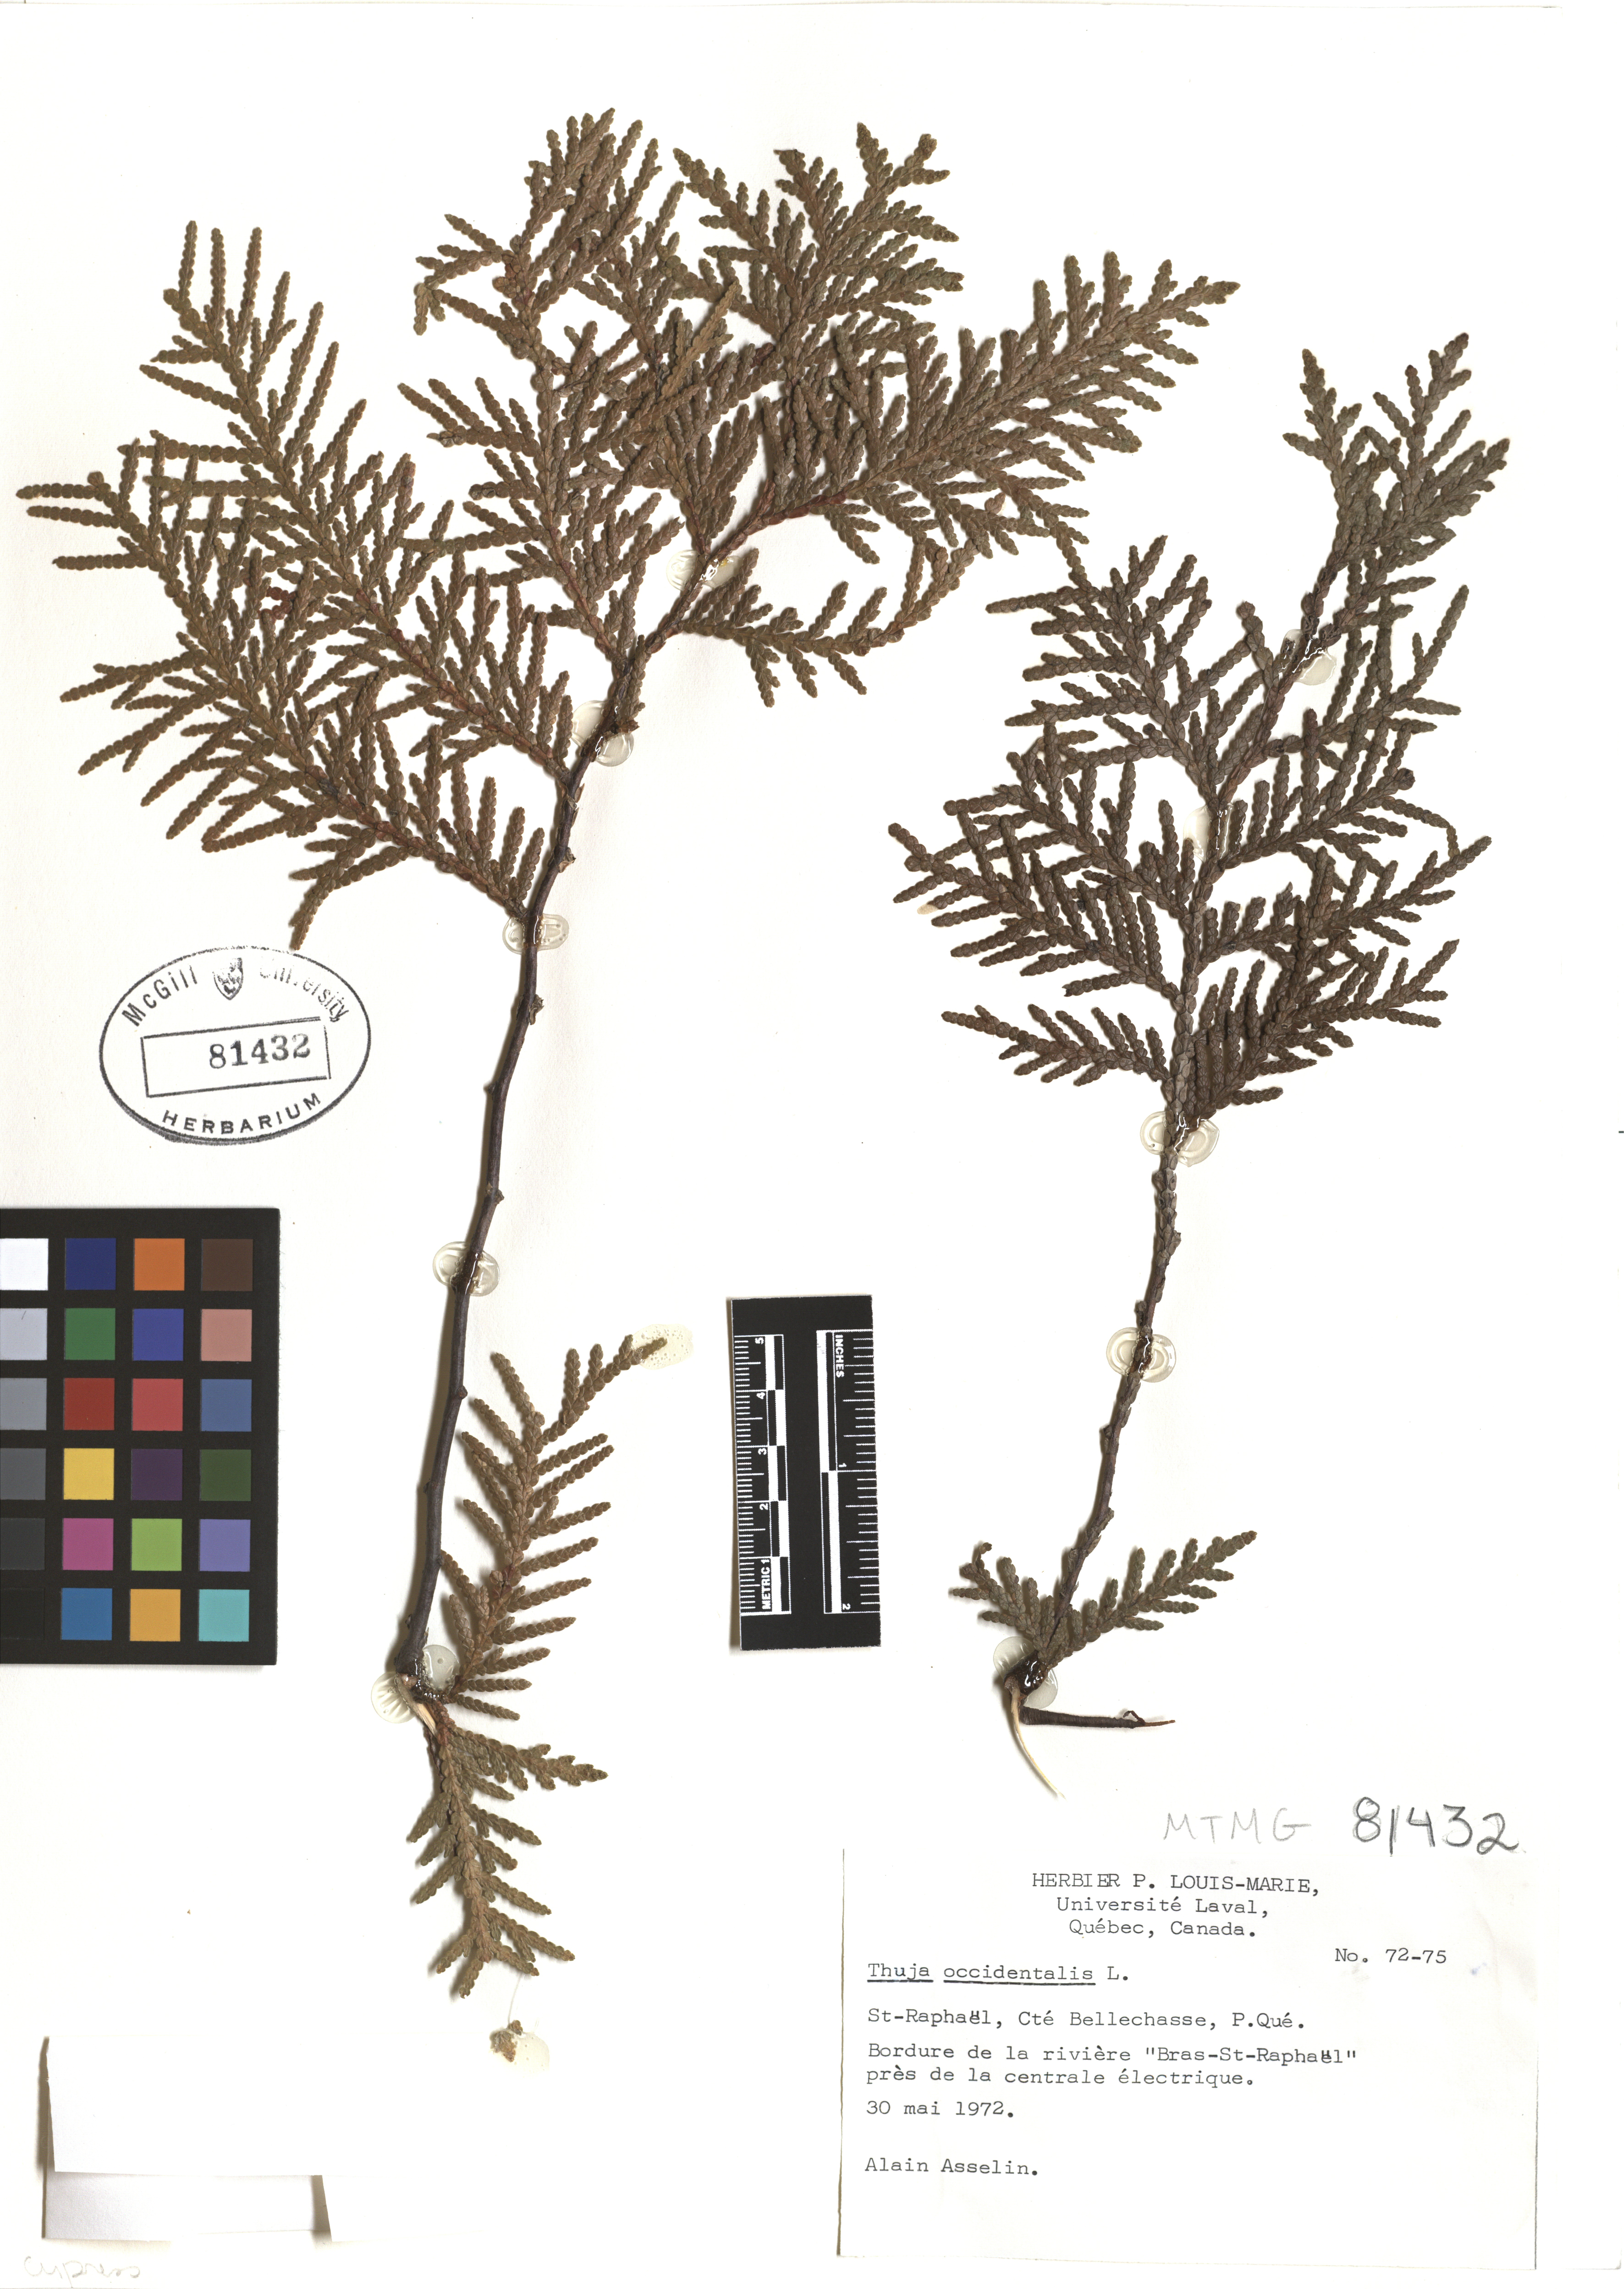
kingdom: Plantae
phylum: Tracheophyta
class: Pinopsida
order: Pinales
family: Cupressaceae
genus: Thuja
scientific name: Thuja occidentalis
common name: Northern white-cedar
